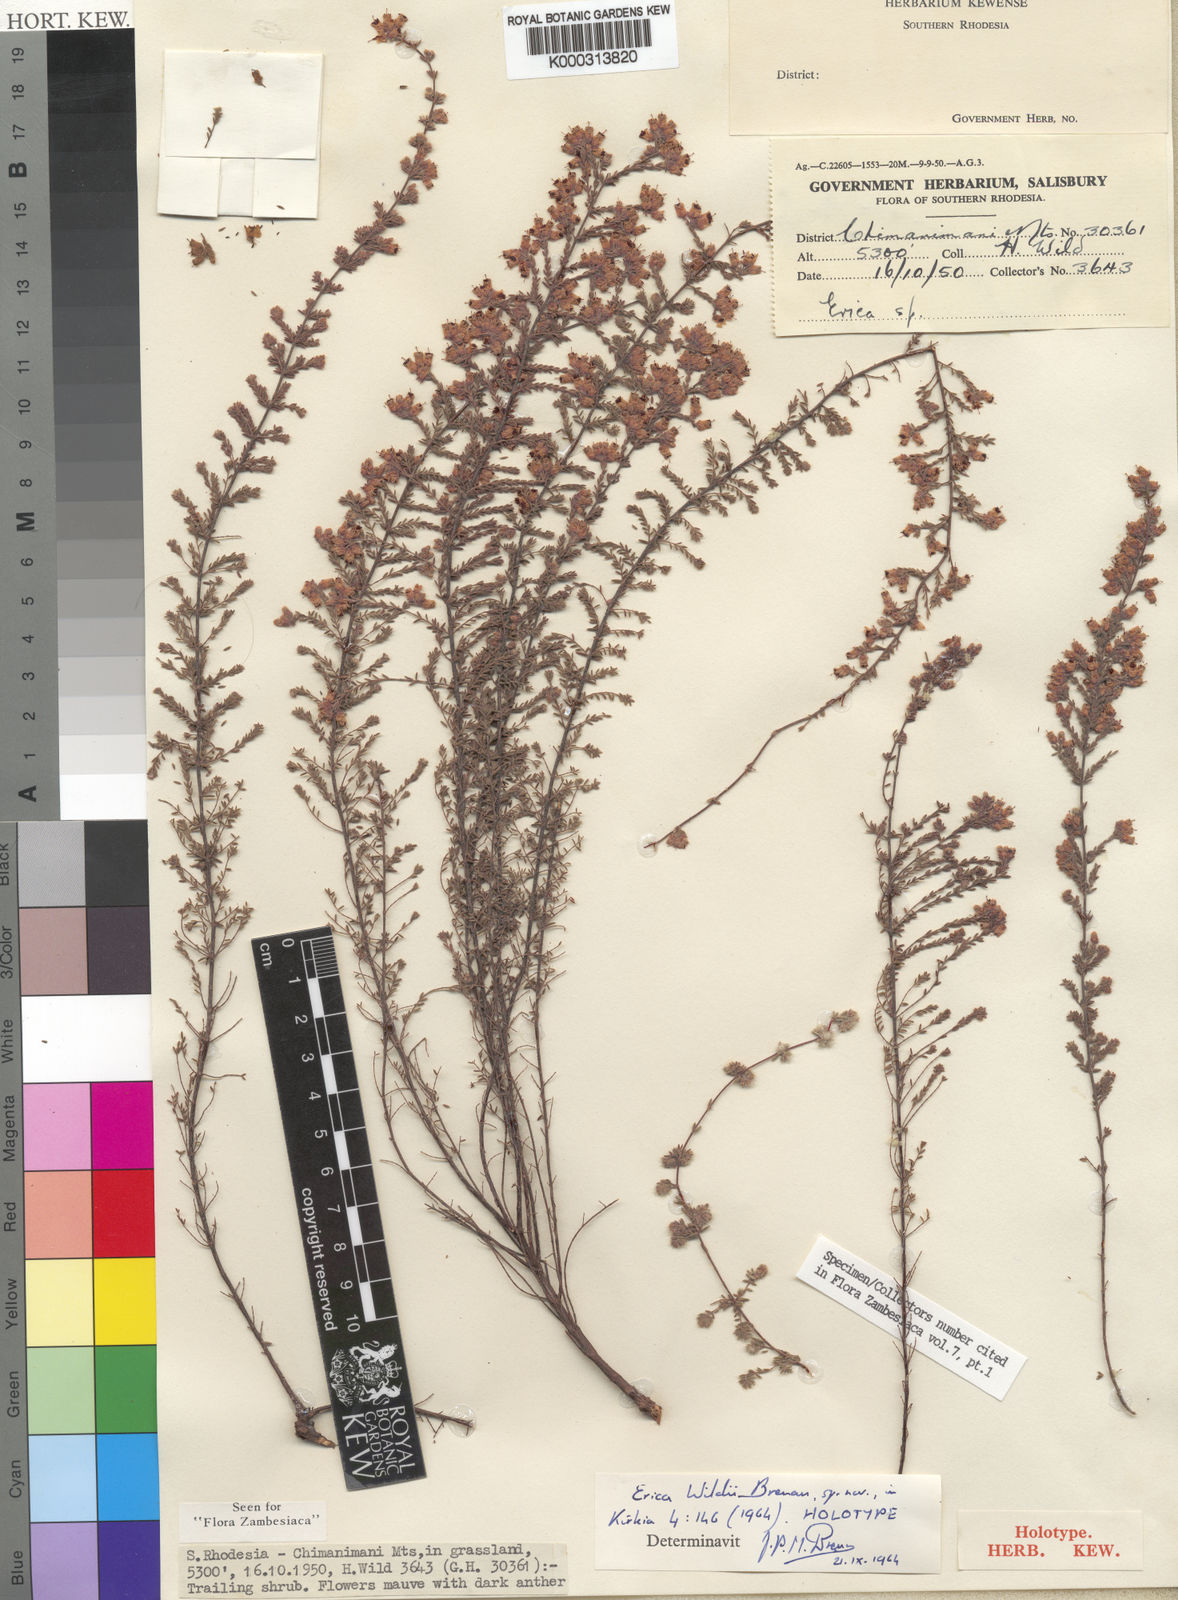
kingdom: Plantae
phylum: Tracheophyta
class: Magnoliopsida
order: Ericales
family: Ericaceae
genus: Erica
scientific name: Erica wildii
